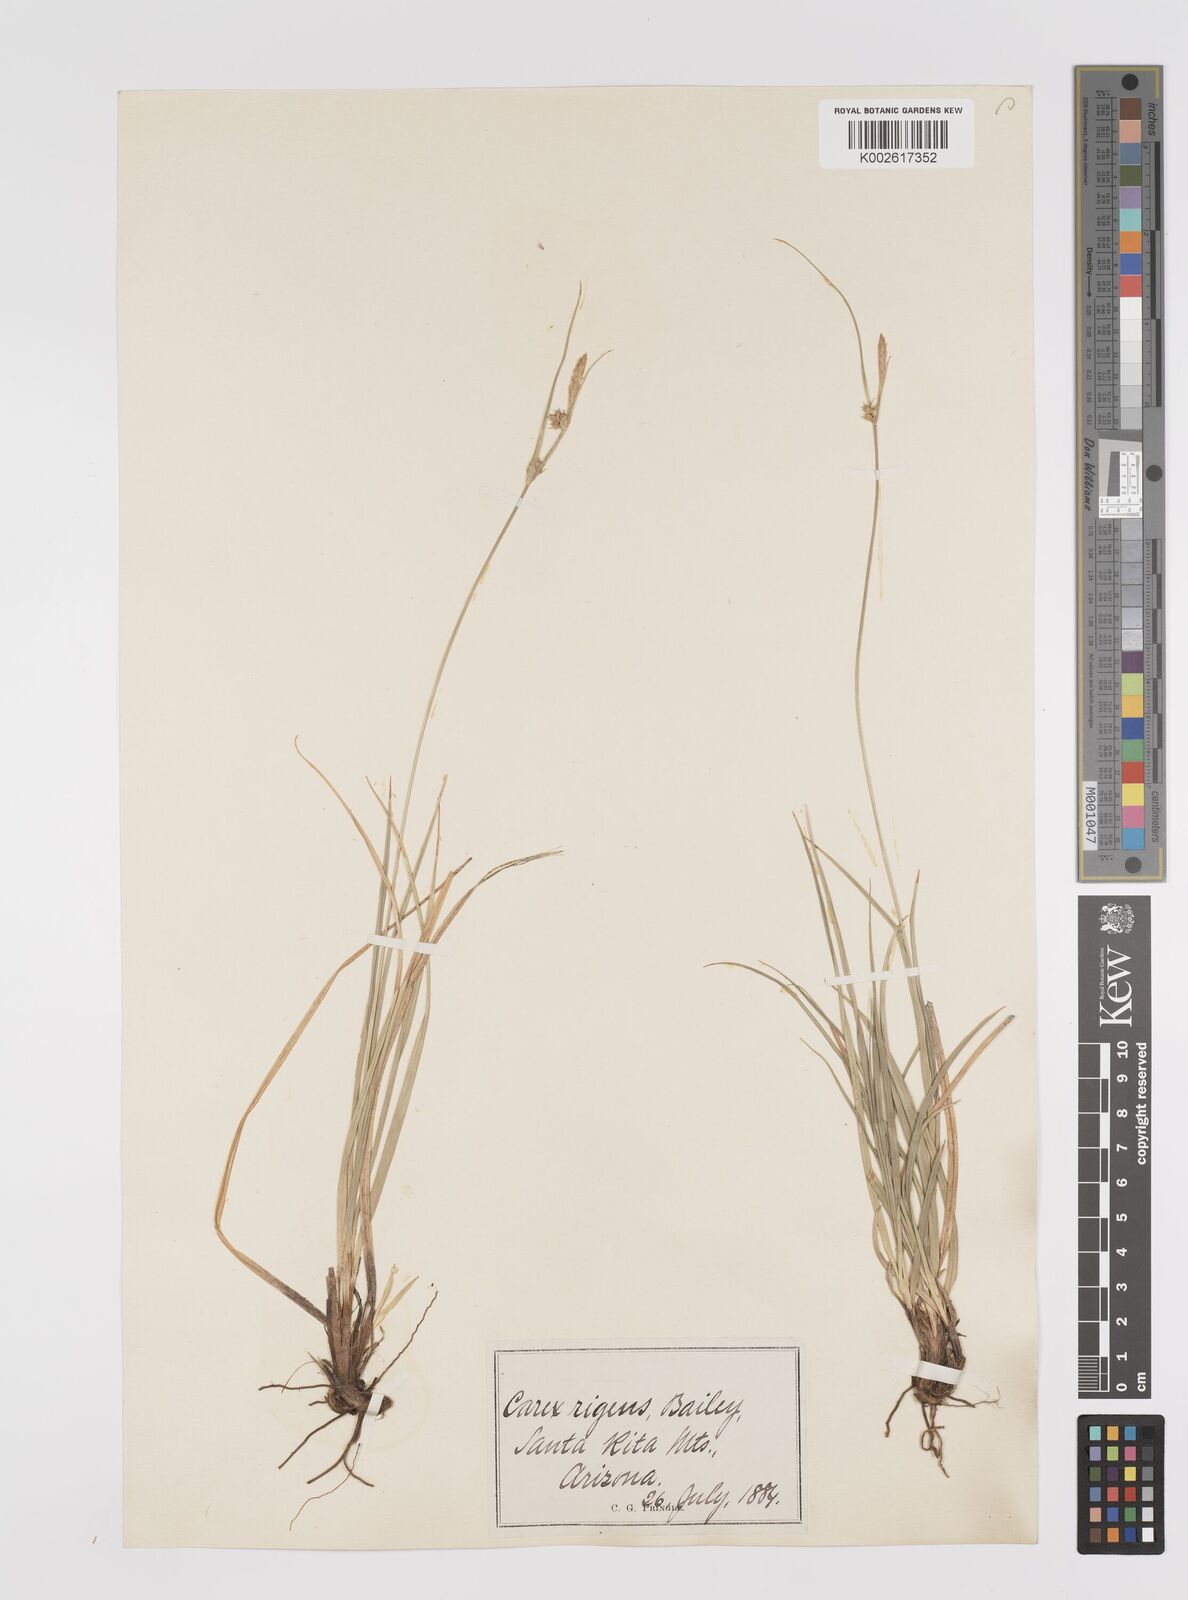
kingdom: Plantae
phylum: Tracheophyta
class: Liliopsida
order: Poales
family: Cyperaceae
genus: Carex
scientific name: Carex turbinata
